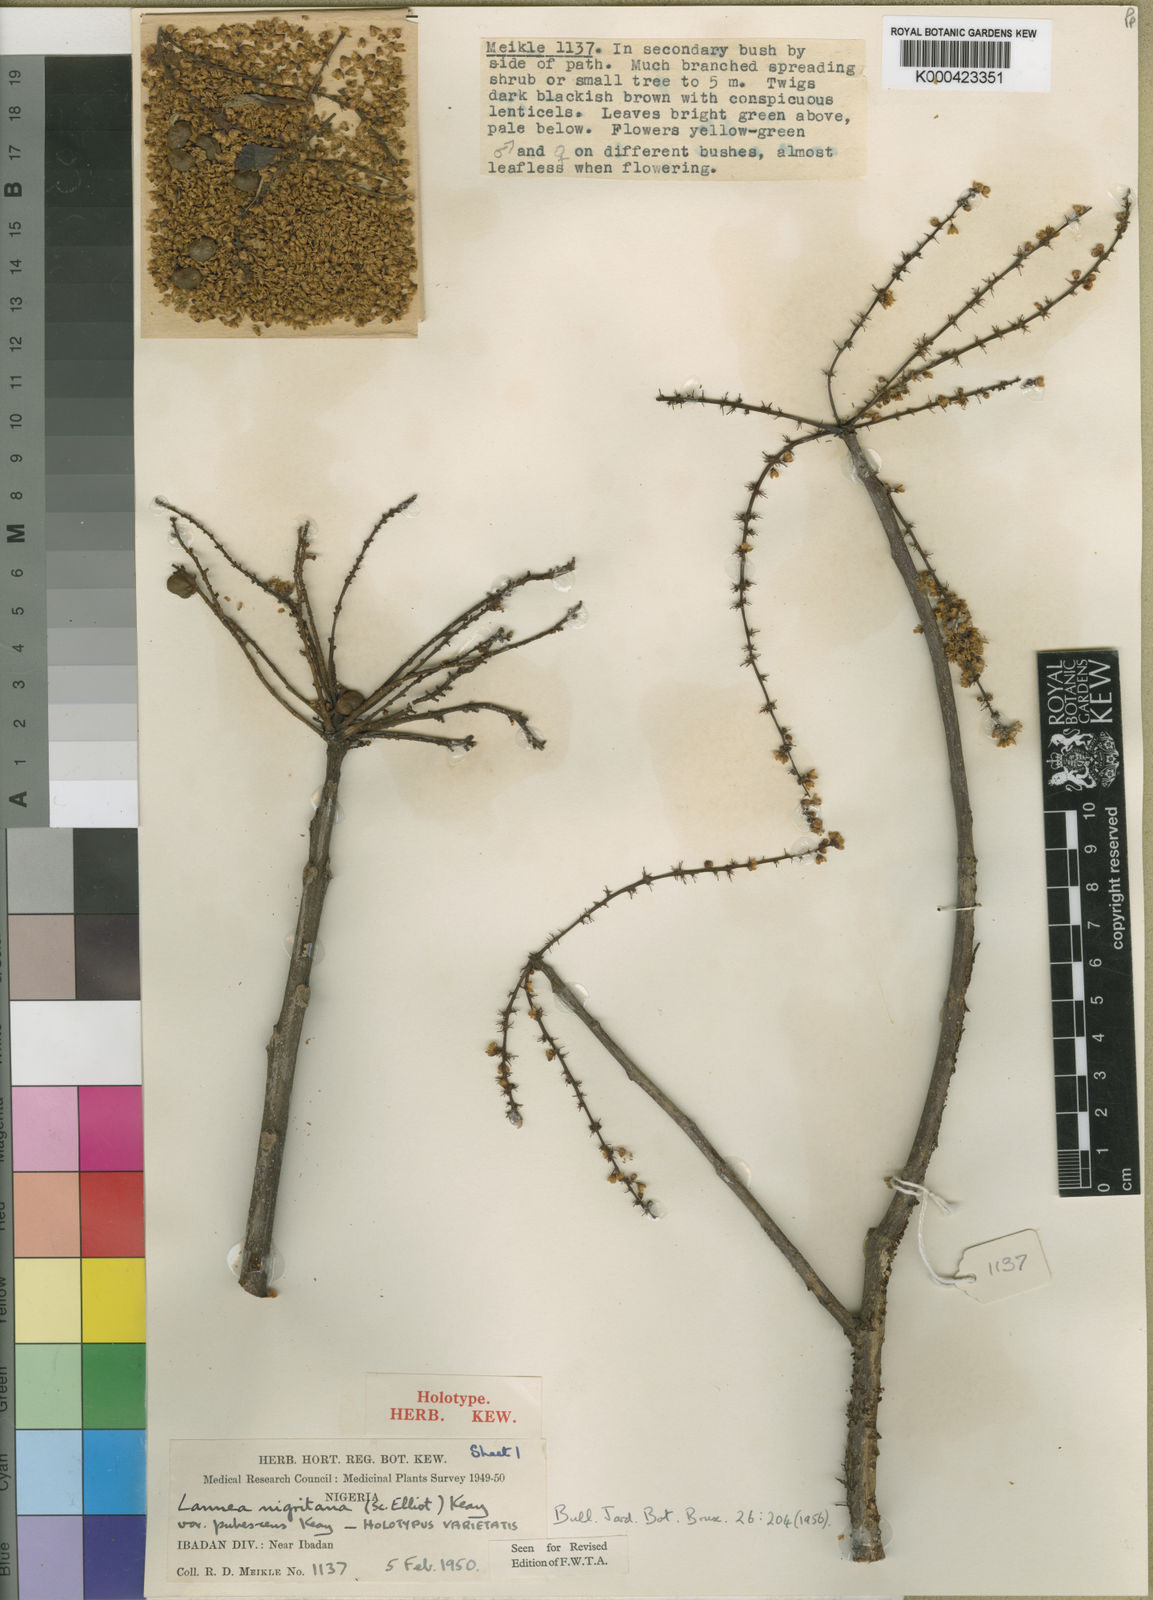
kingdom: Plantae
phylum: Tracheophyta
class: Magnoliopsida
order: Sapindales
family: Anacardiaceae
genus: Lannea
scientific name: Lannea nigritana
